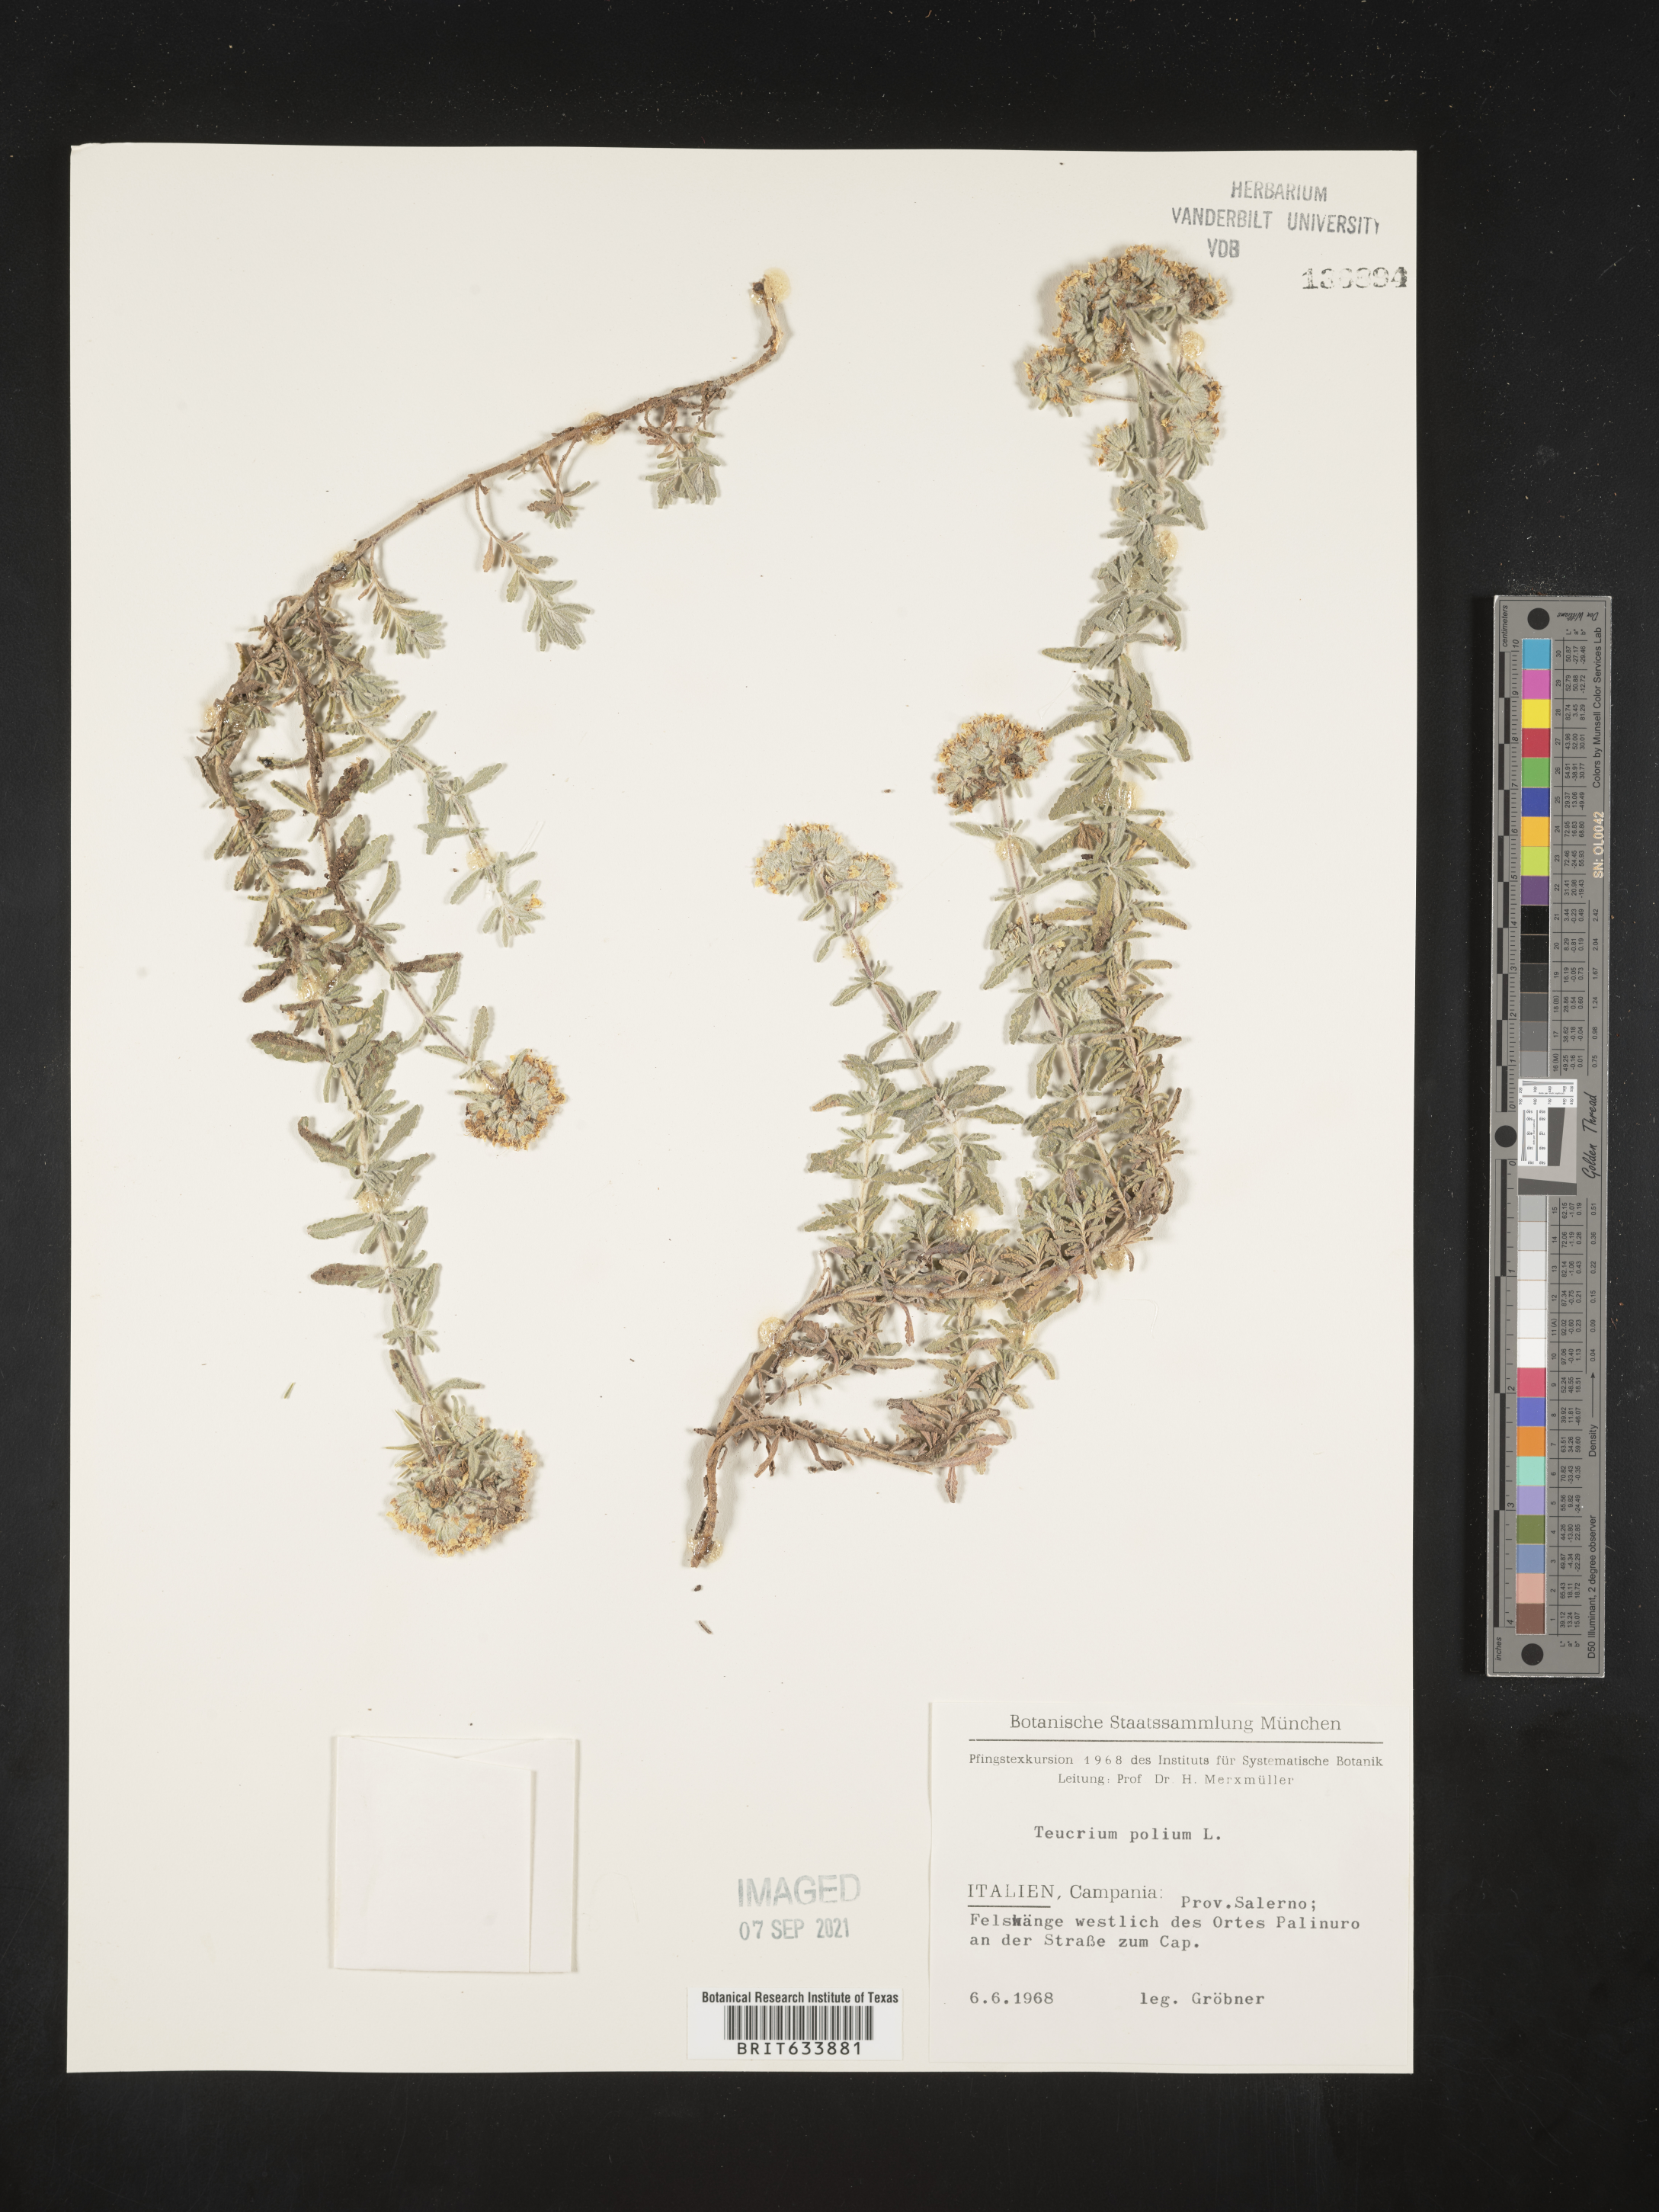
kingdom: Plantae
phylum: Tracheophyta
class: Magnoliopsida
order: Lamiales
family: Lamiaceae
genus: Teucrium
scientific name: Teucrium
